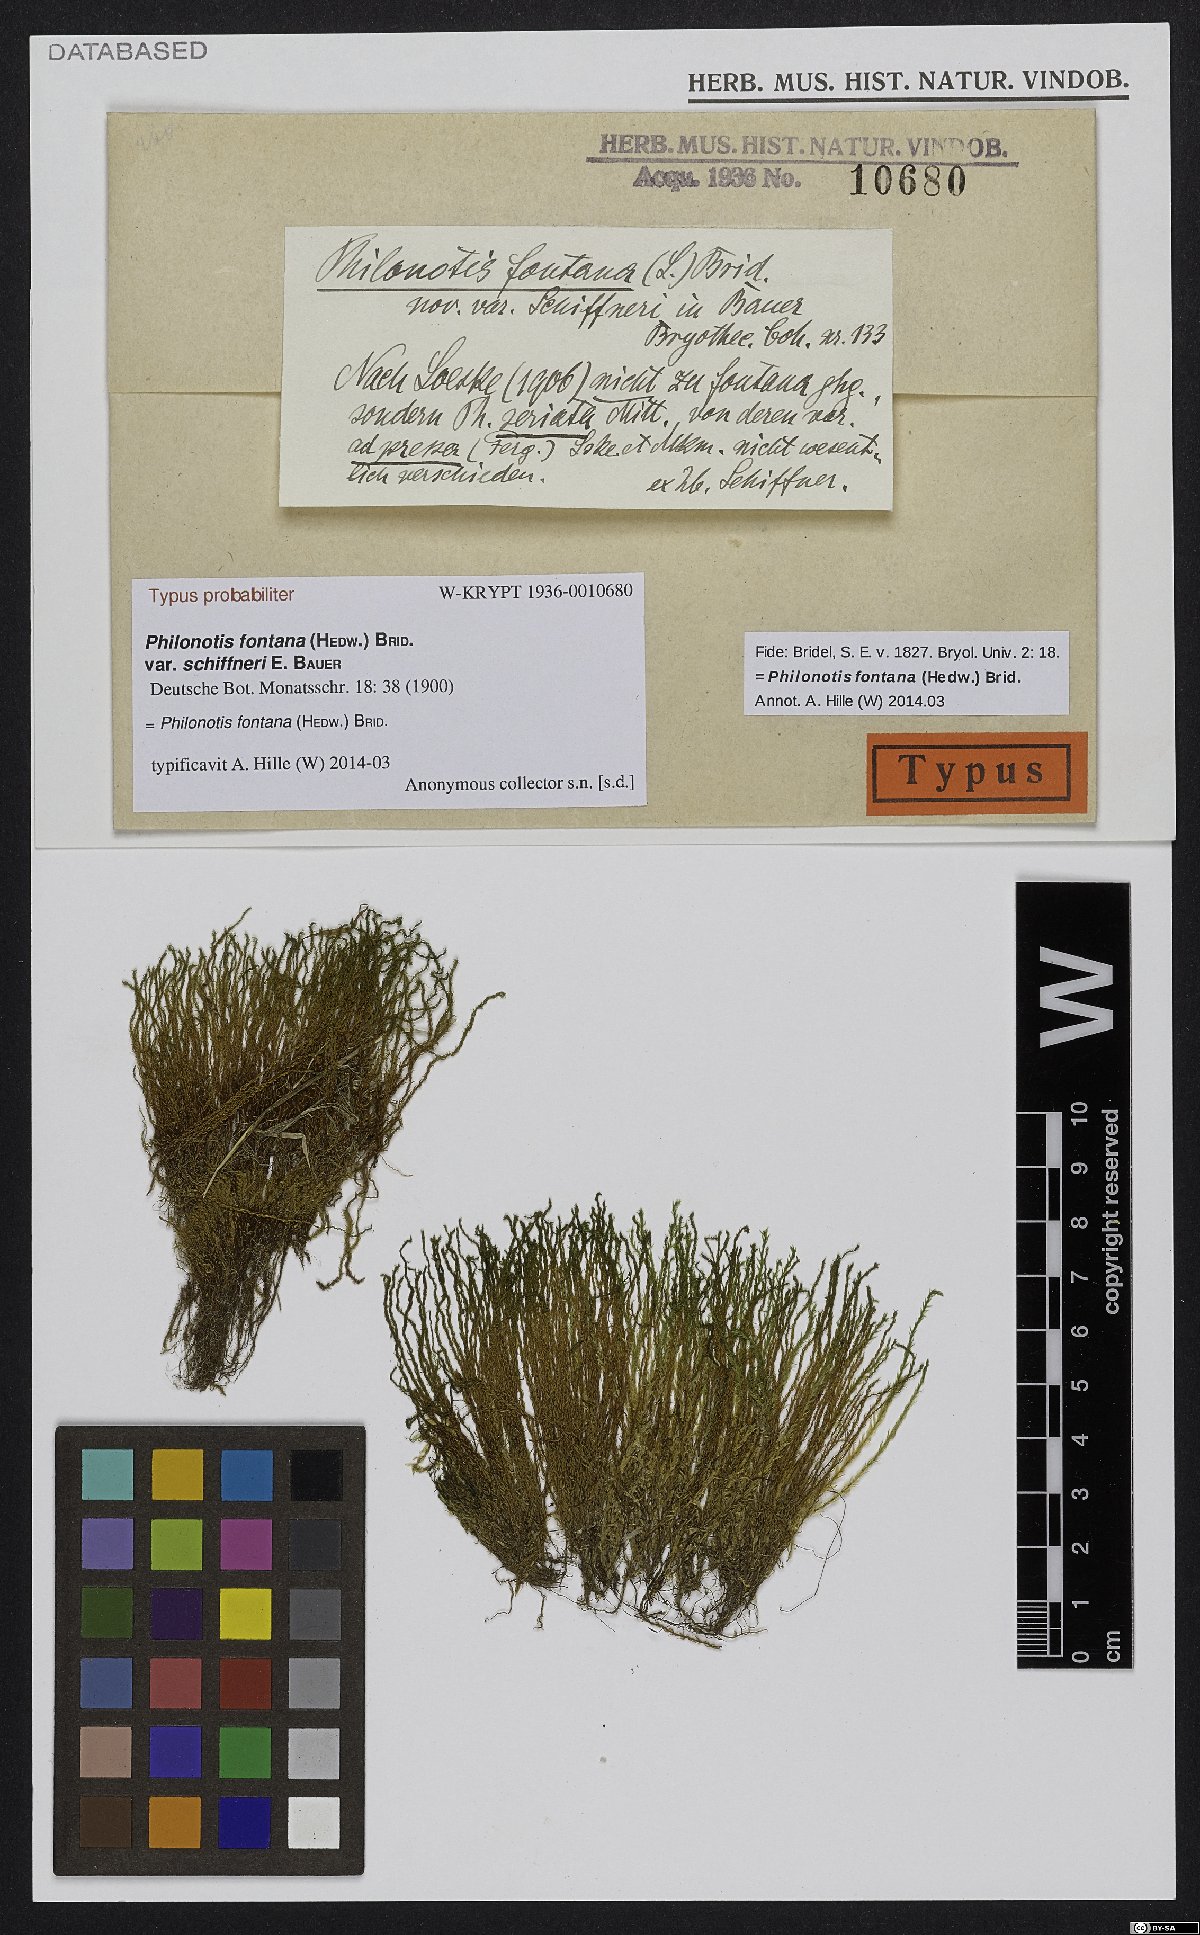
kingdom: Plantae
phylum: Bryophyta
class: Bryopsida
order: Bartramiales
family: Bartramiaceae
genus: Philonotis
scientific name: Philonotis seriata
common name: Spiral apple-moss
